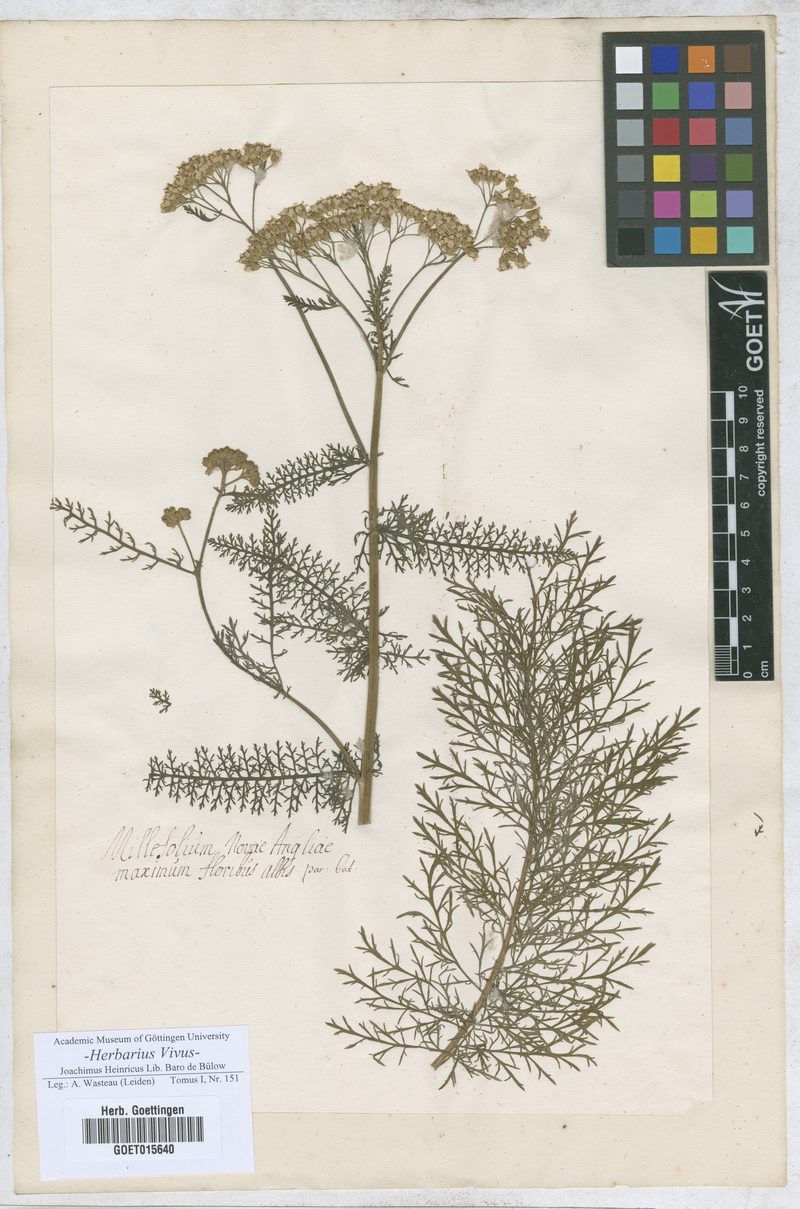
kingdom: Plantae
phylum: Tracheophyta
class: Magnoliopsida
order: Asterales
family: Asteraceae
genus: Millefolium
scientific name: Millefolium
